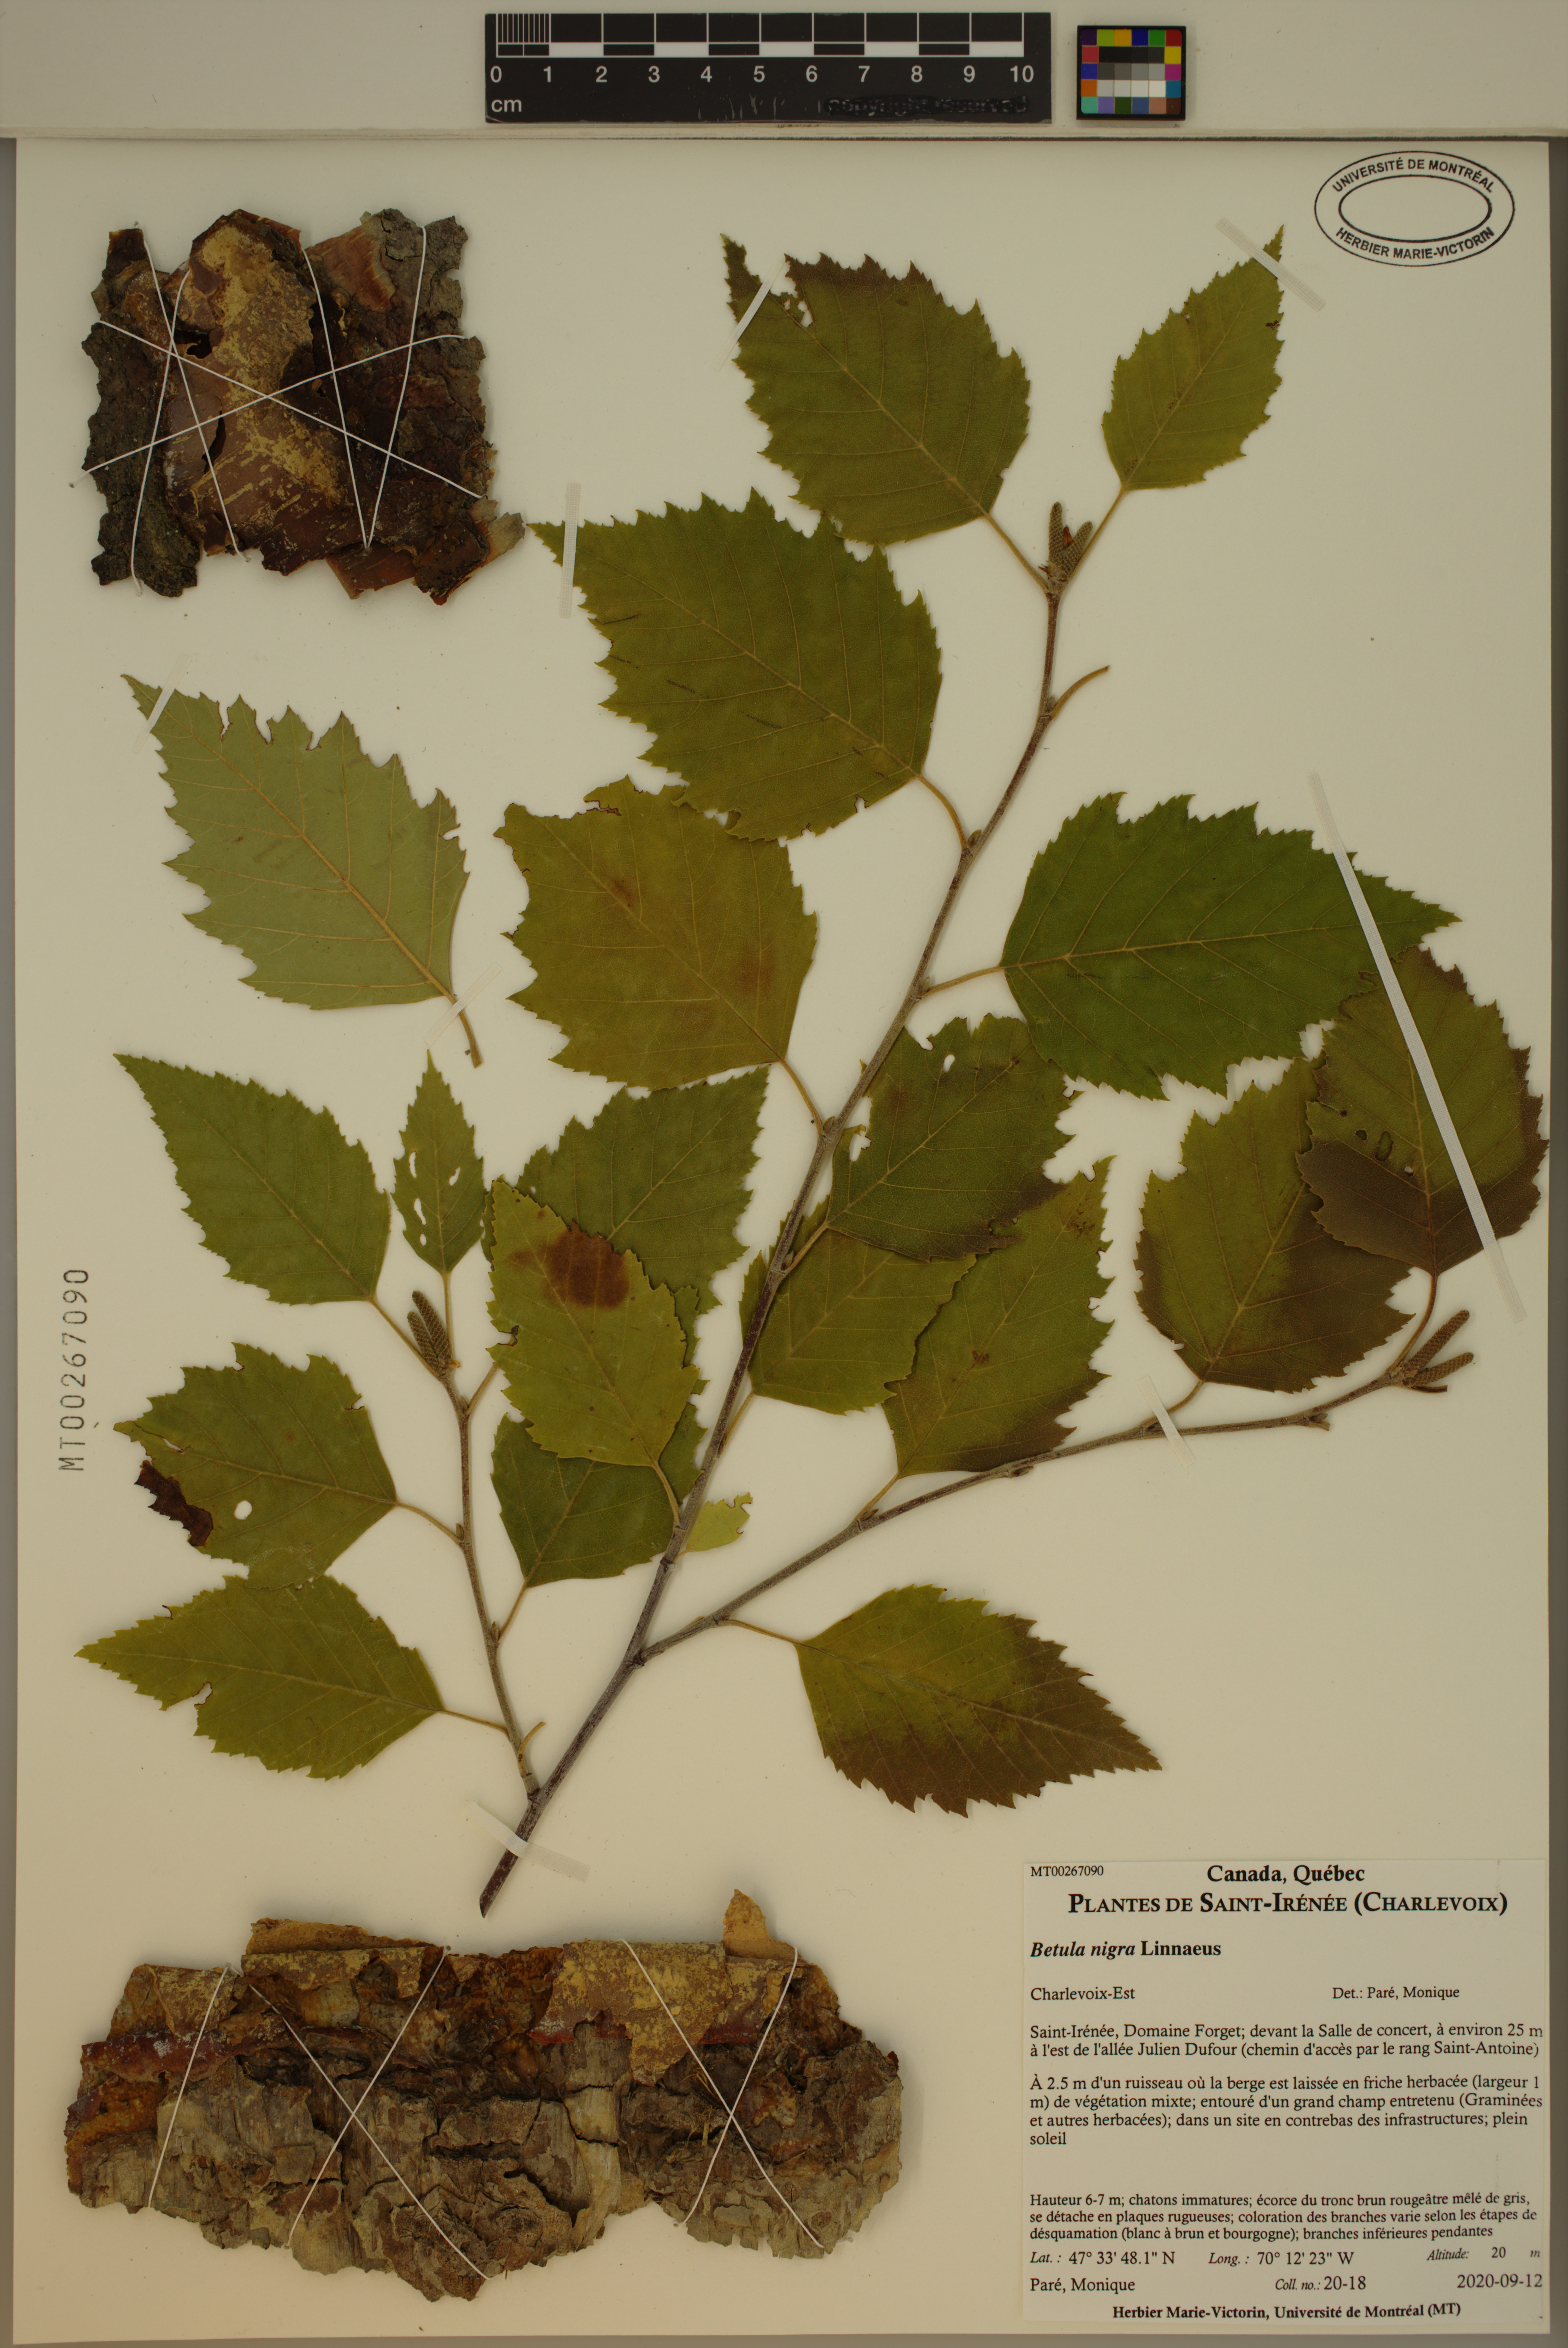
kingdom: Plantae
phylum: Tracheophyta
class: Magnoliopsida
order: Fagales
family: Betulaceae
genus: Betula
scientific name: Betula nigra
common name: Black birch
